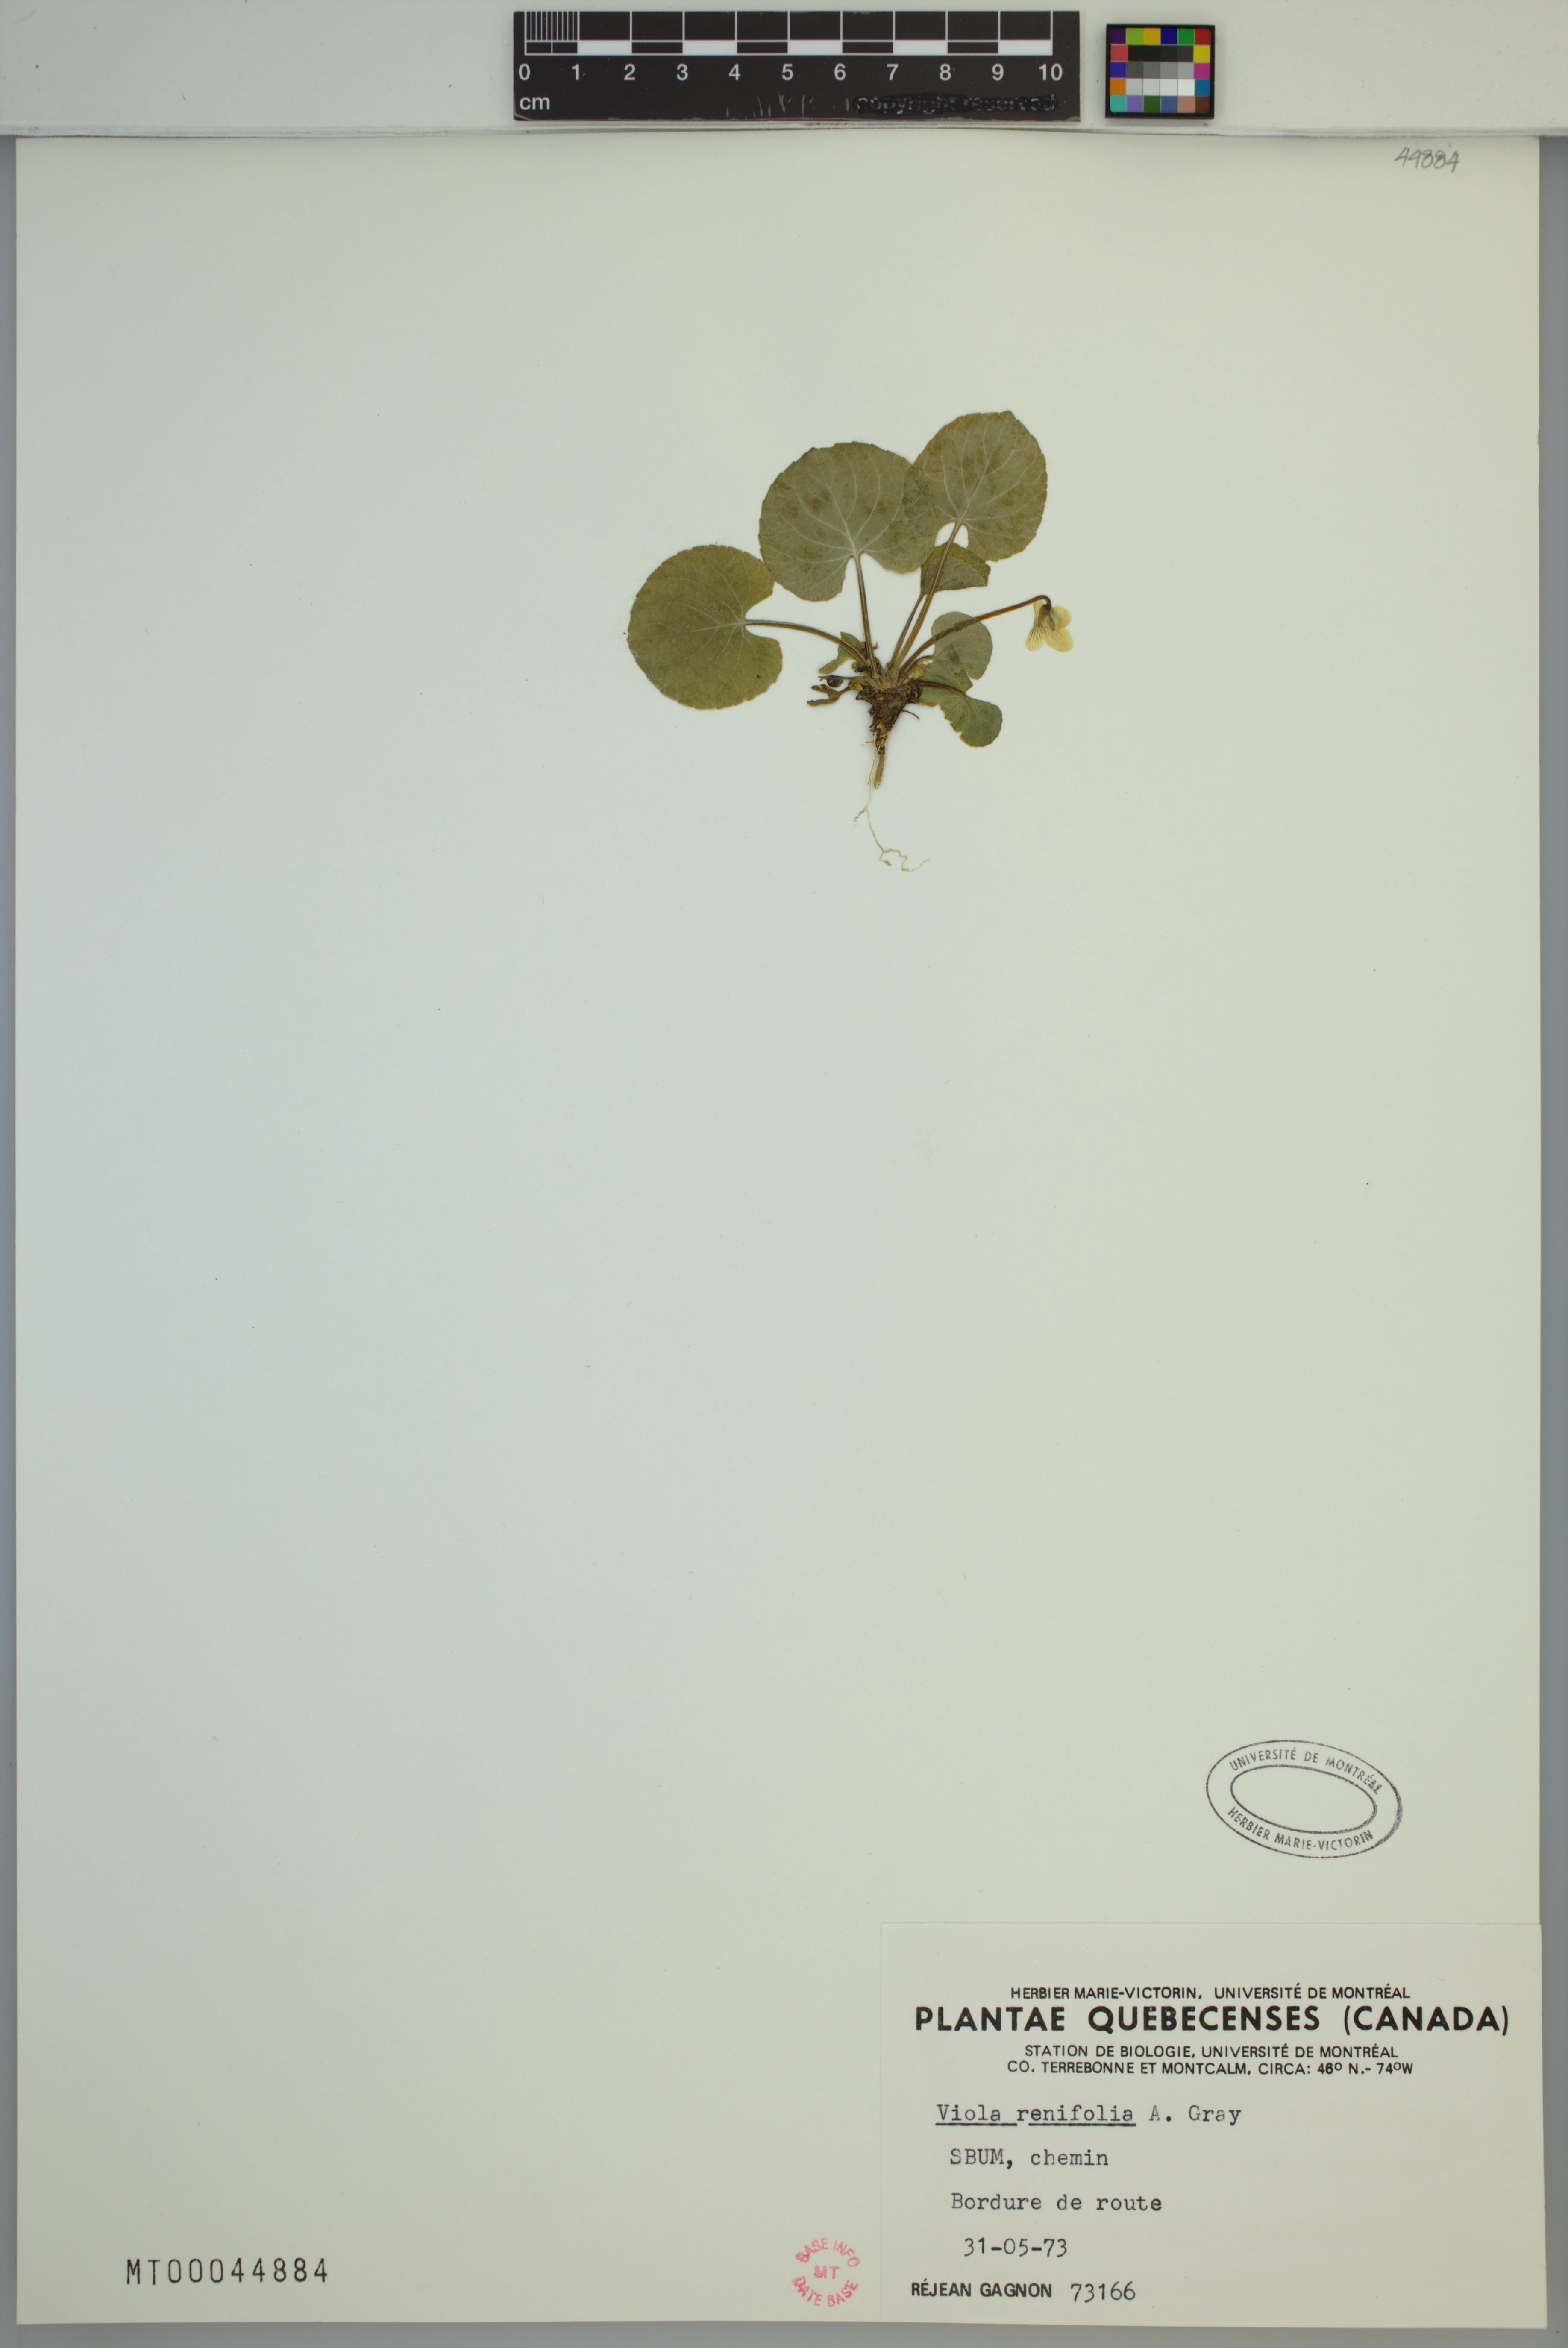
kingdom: Plantae
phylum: Tracheophyta
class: Magnoliopsida
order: Malpighiales
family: Violaceae
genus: Viola
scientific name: Viola renifolia
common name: Kidney-leaf violet
